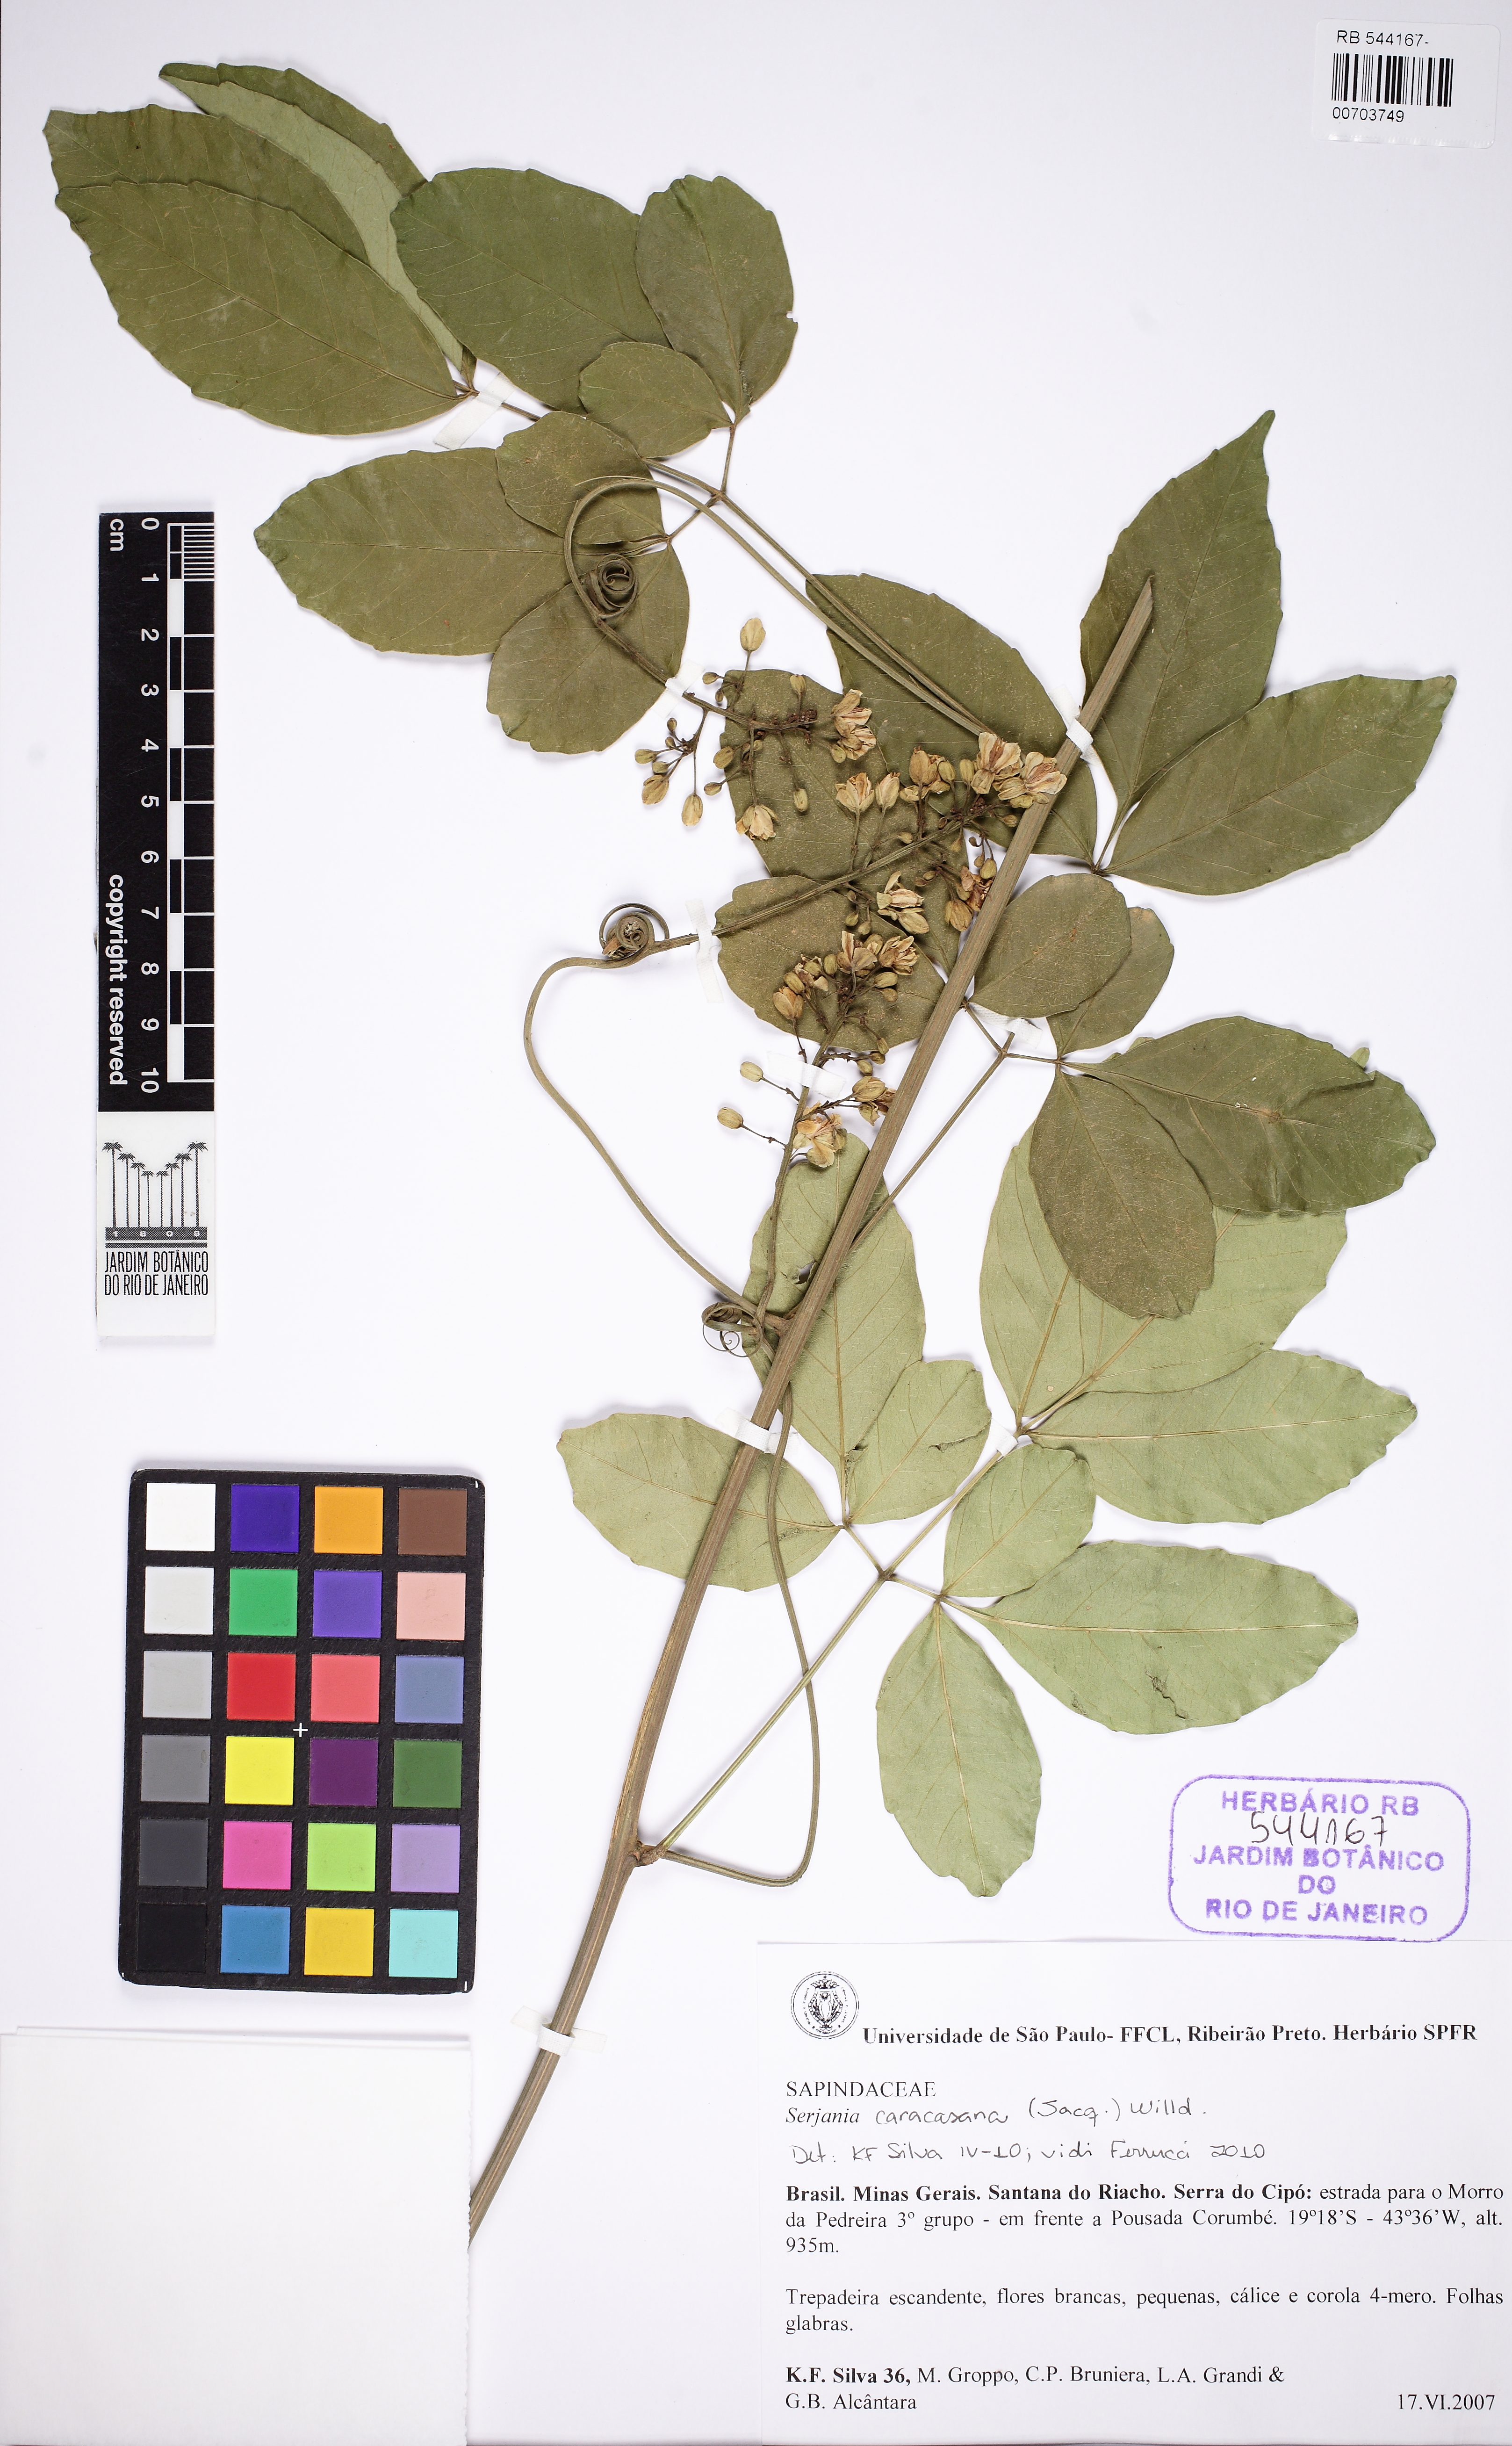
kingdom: Plantae
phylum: Tracheophyta
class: Magnoliopsida
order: Sapindales
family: Sapindaceae
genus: Serjania
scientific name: Serjania caracasana
